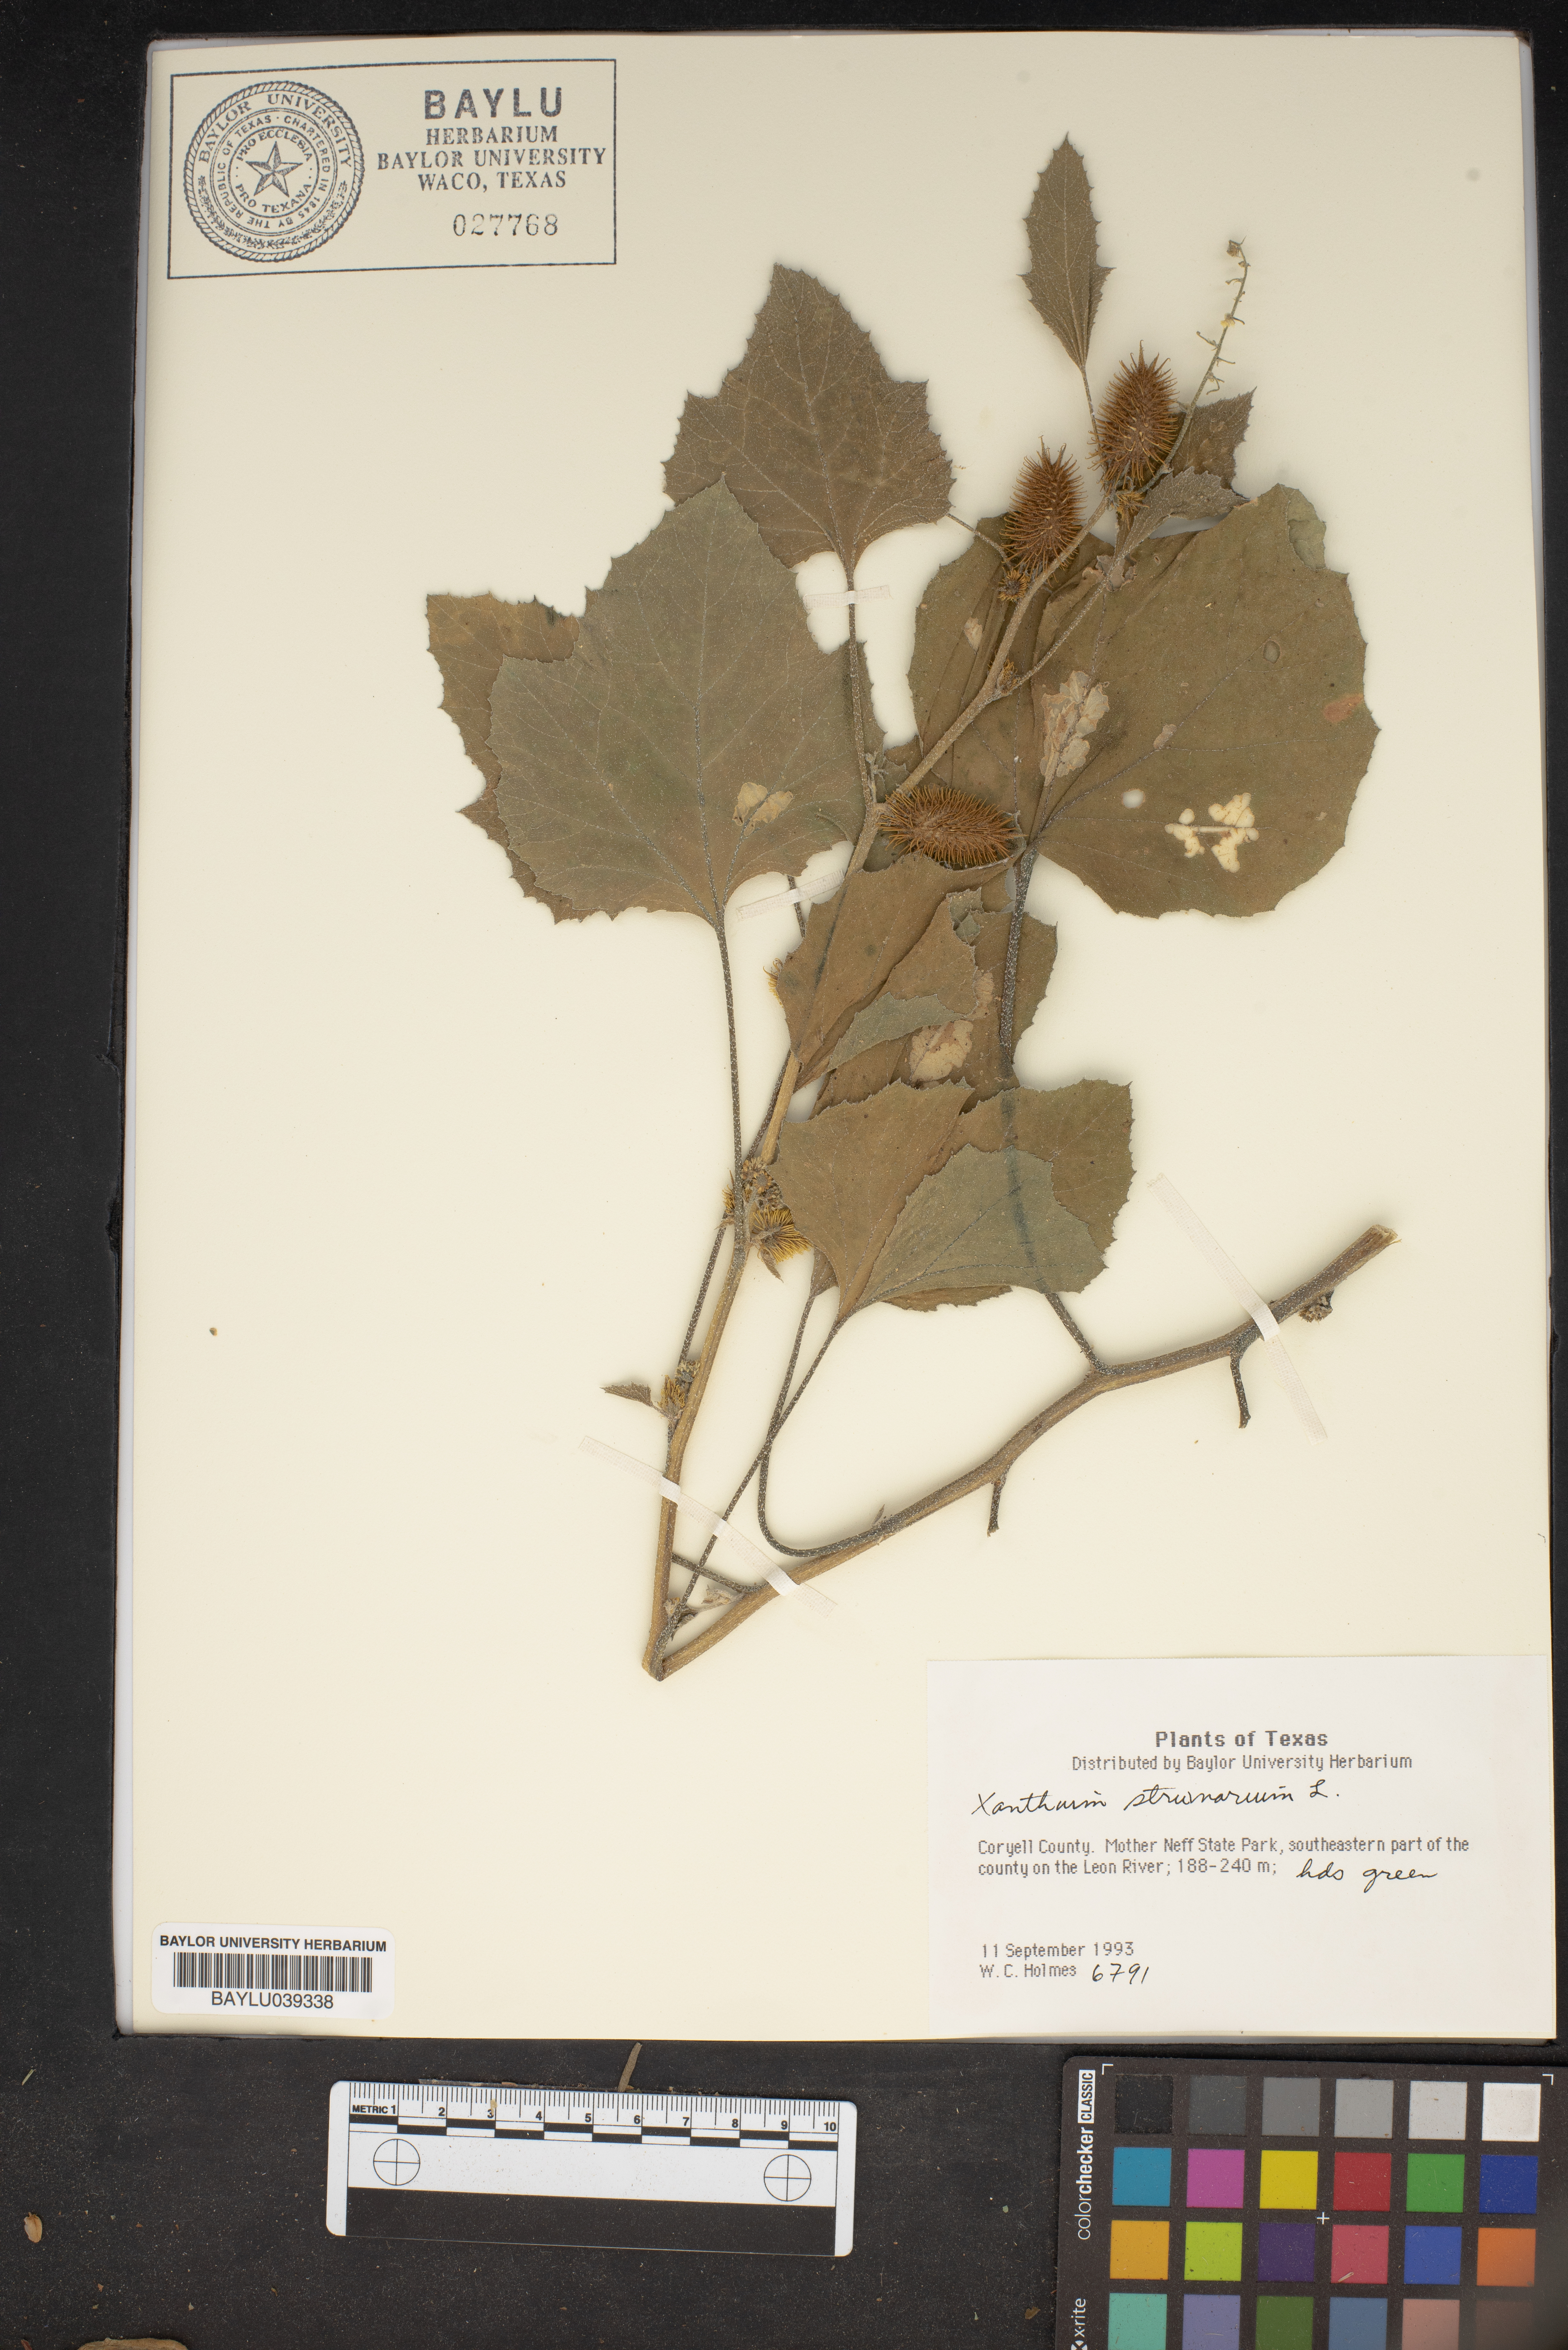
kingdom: Plantae
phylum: Tracheophyta
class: Magnoliopsida
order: Asterales
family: Asteraceae
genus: Xanthium
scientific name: Xanthium strumarium
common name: Rough cocklebur
